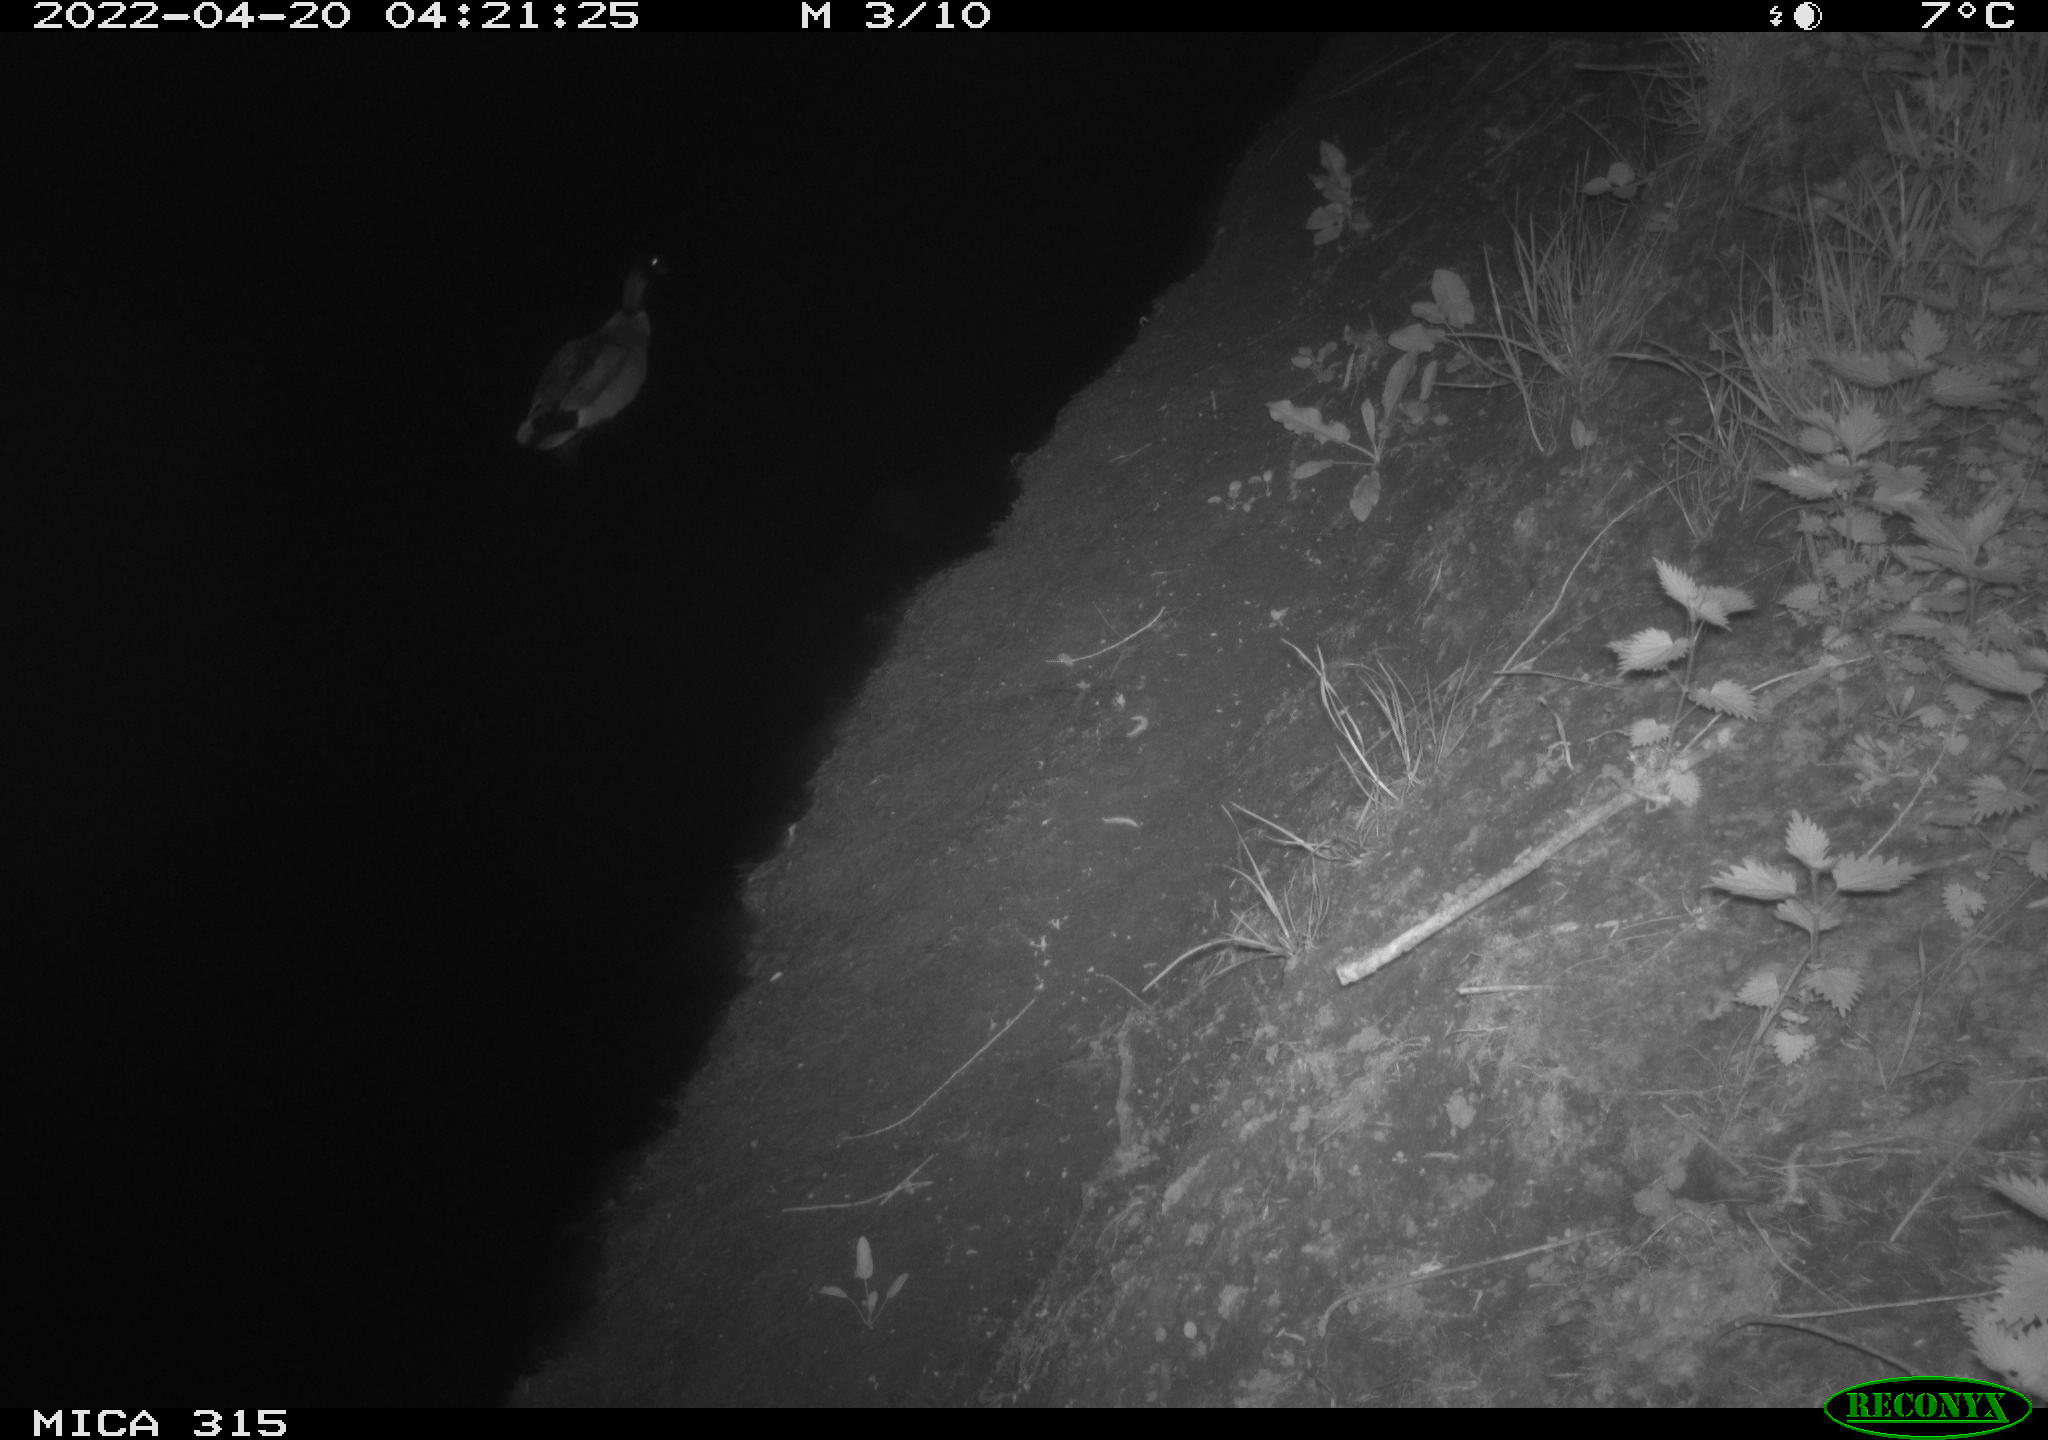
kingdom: Animalia
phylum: Chordata
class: Aves
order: Anseriformes
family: Anatidae
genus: Anas
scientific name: Anas platyrhynchos
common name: Mallard
